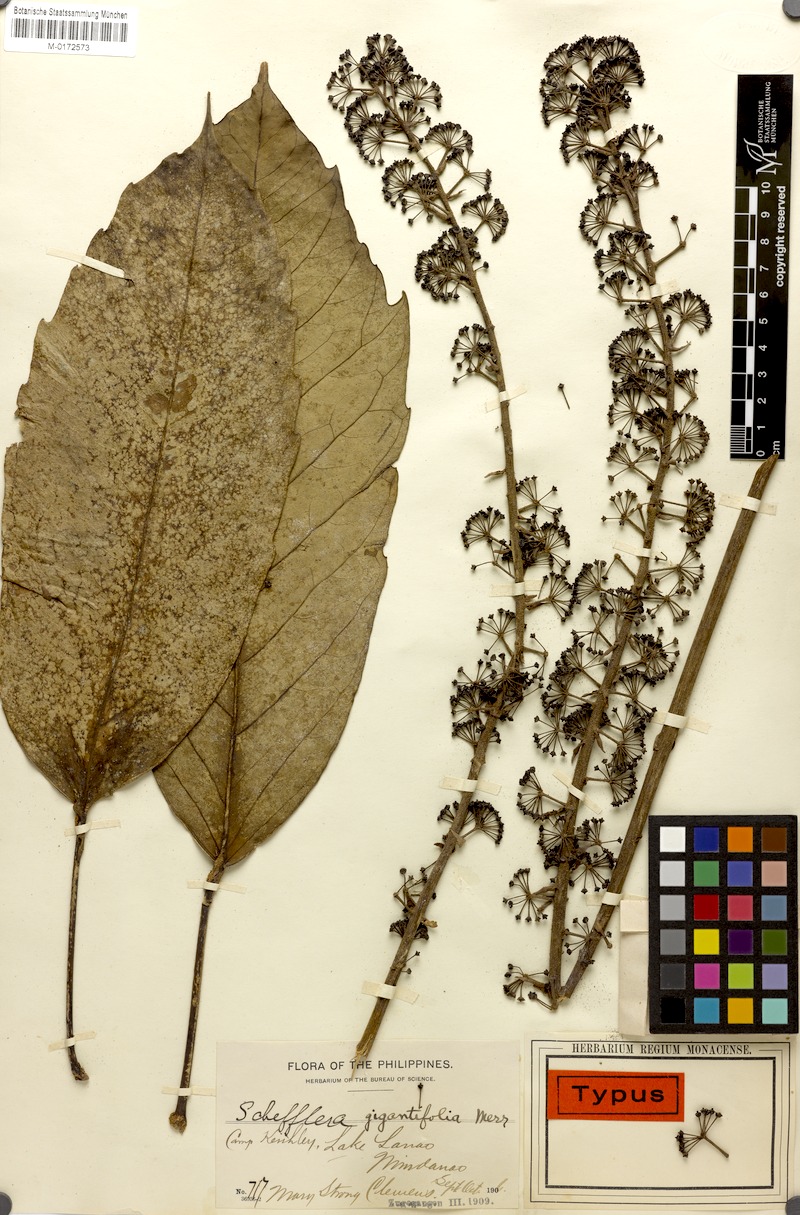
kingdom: Plantae
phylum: Tracheophyta
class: Magnoliopsida
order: Apiales
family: Araliaceae
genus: Heptapleurum
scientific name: Heptapleurum gigantifolium
